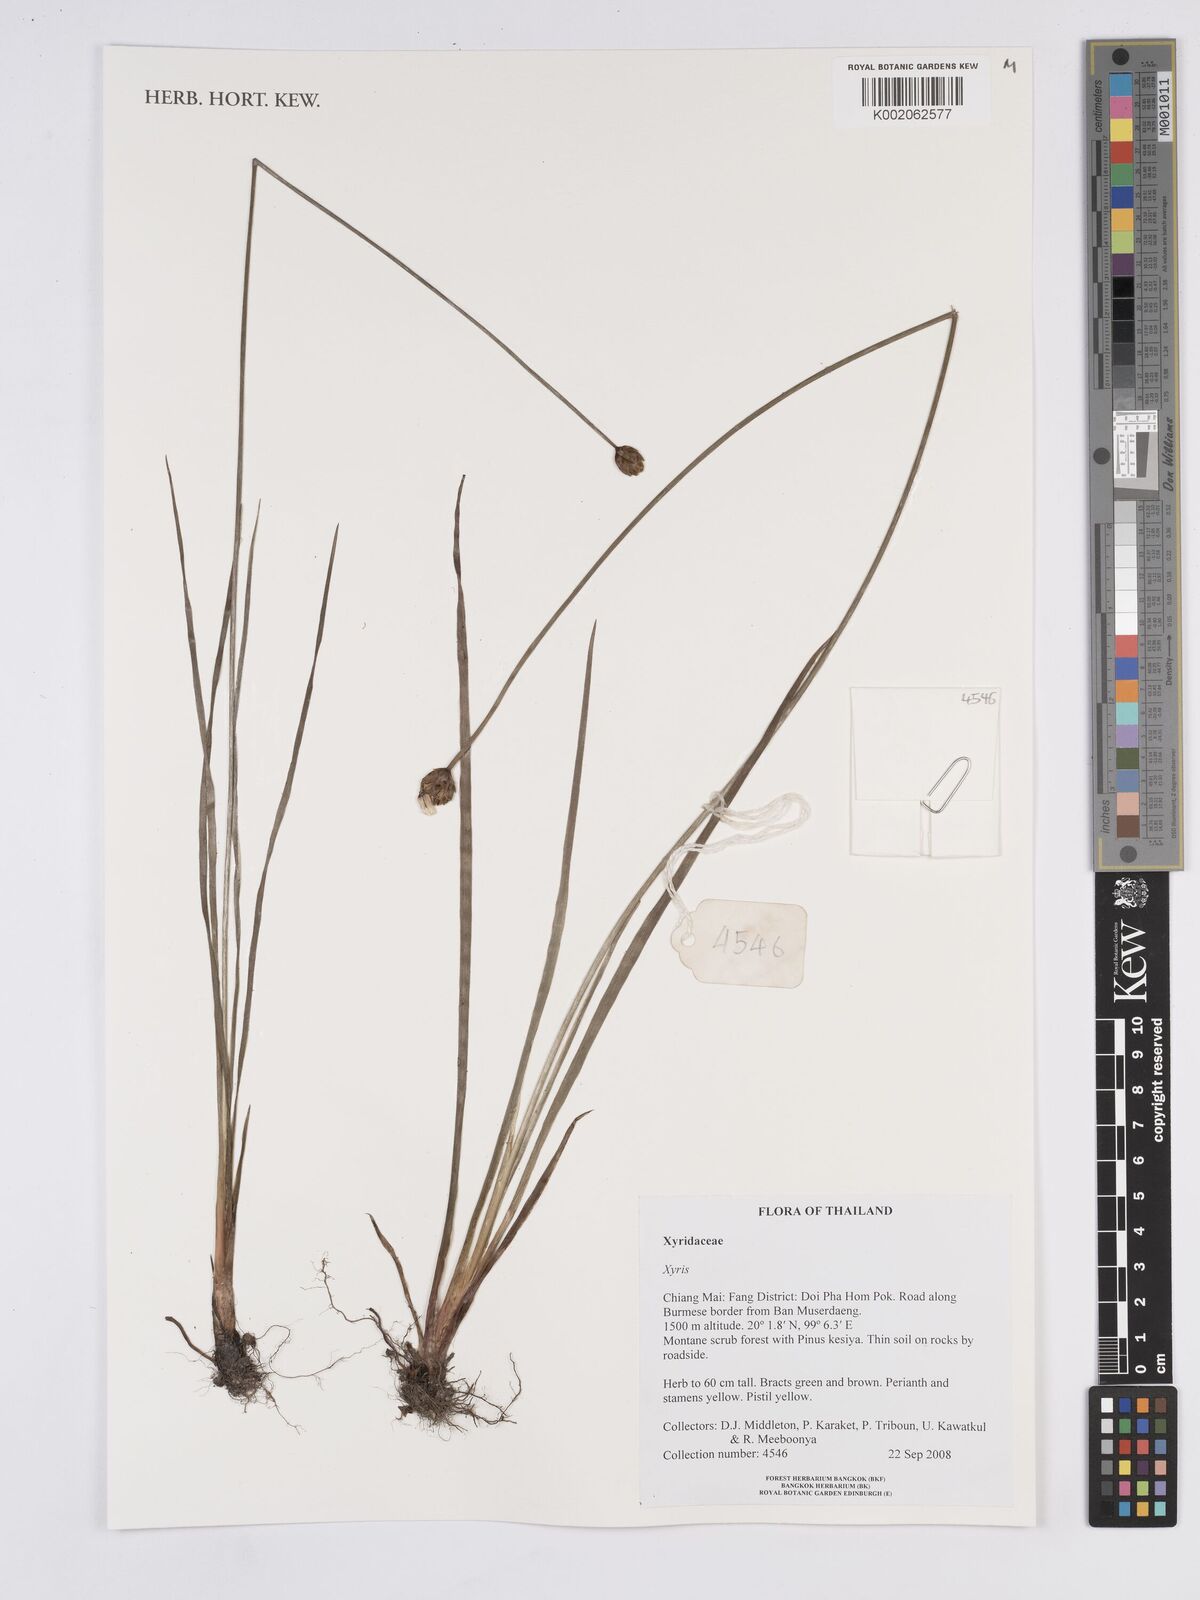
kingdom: Plantae
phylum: Tracheophyta
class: Liliopsida
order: Poales
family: Xyridaceae
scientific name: Xyridaceae
